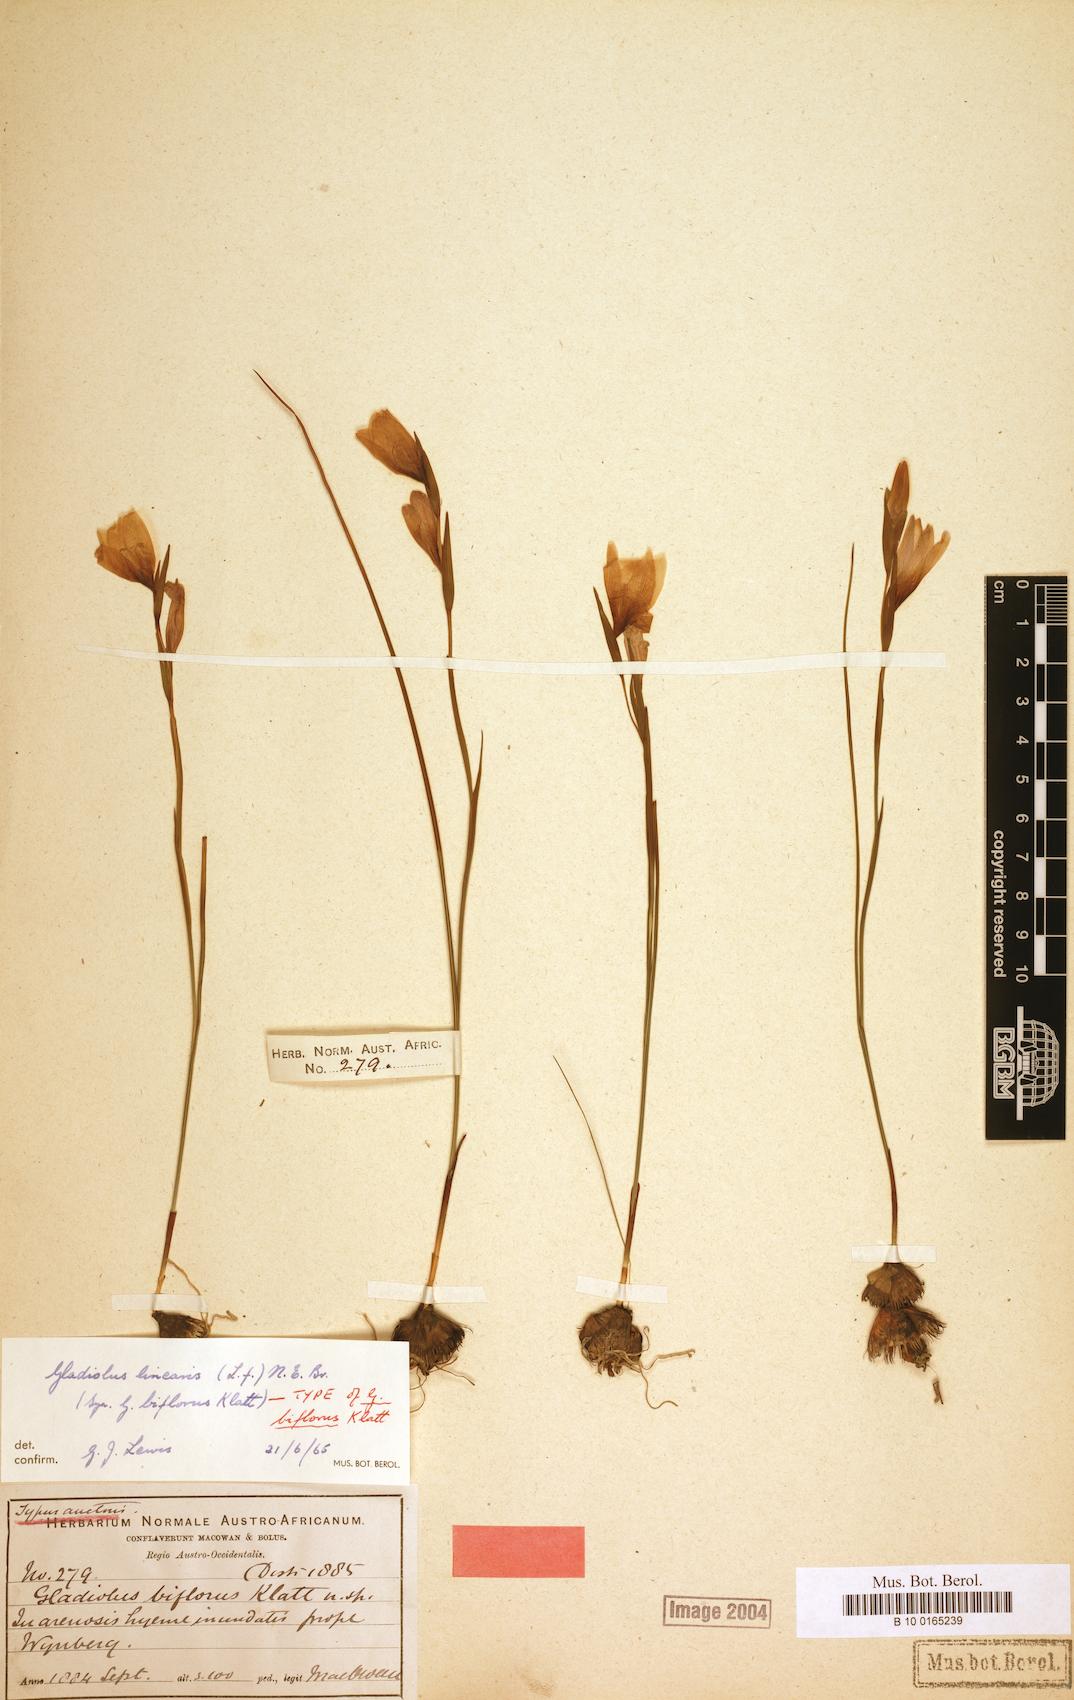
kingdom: Plantae
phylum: Tracheophyta
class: Liliopsida
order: Asparagales
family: Iridaceae
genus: Gladiolus
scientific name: Gladiolus quadrangulus
